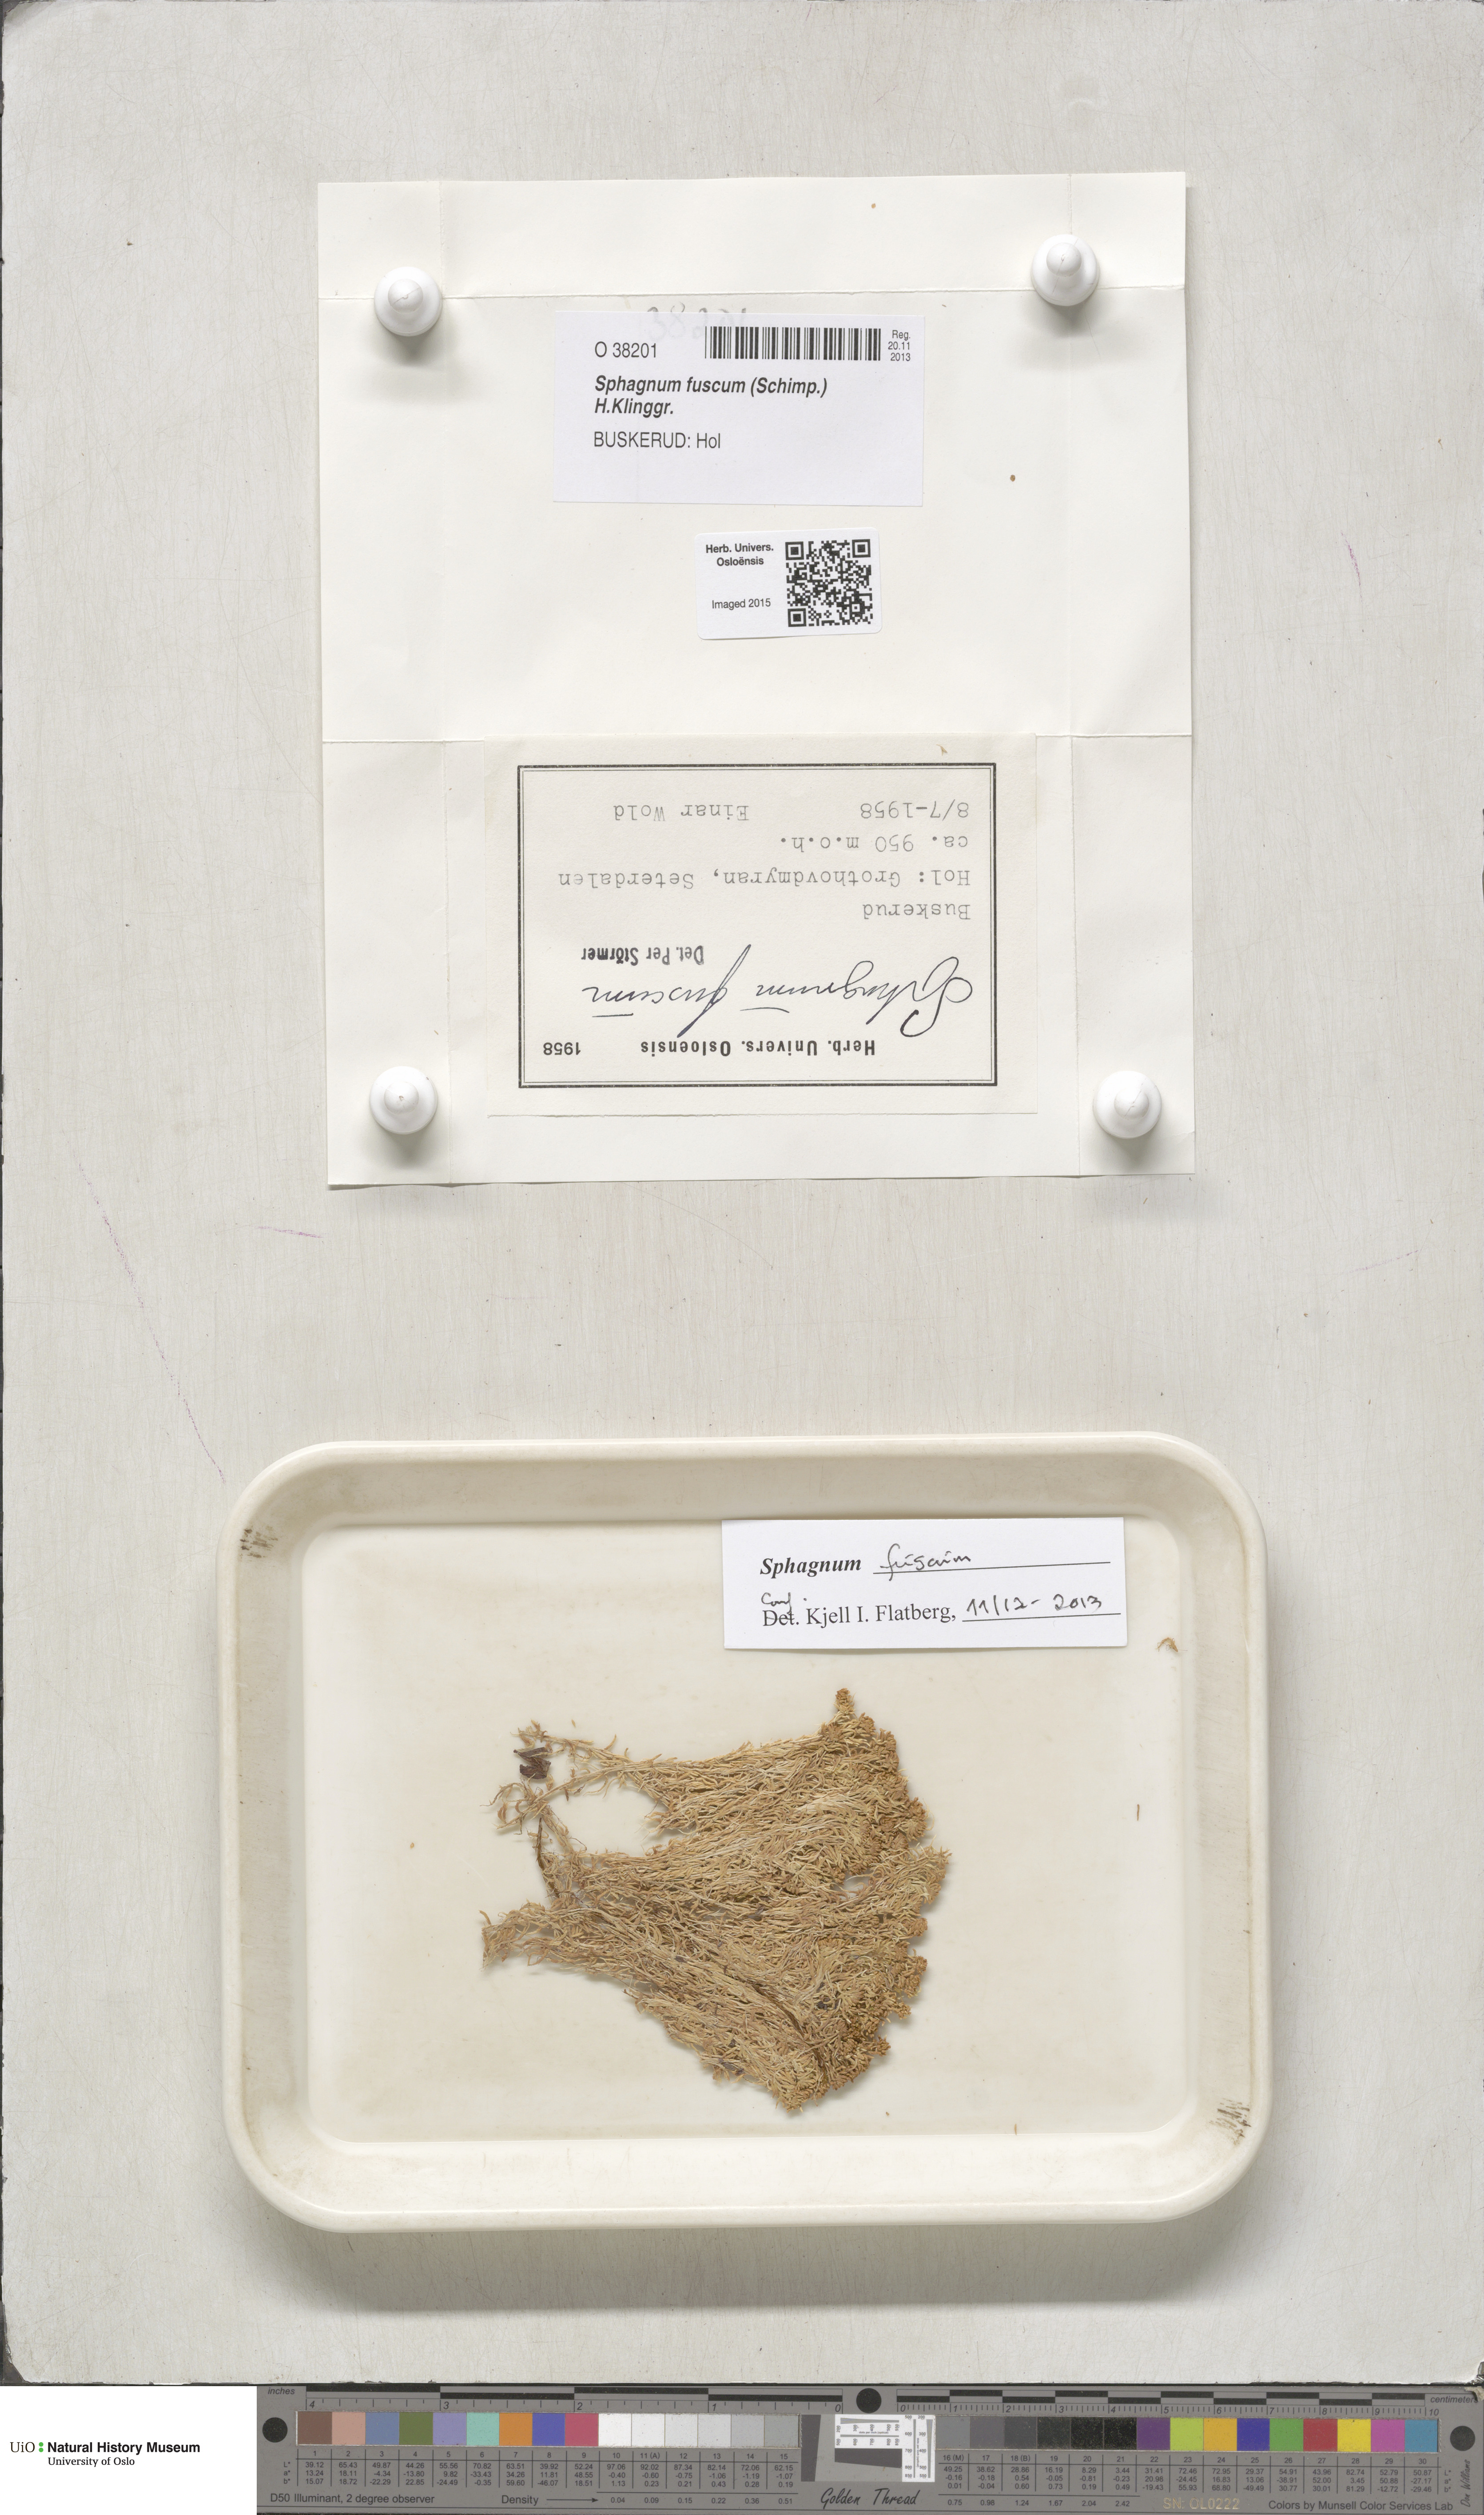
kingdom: Plantae
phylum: Bryophyta
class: Sphagnopsida
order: Sphagnales
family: Sphagnaceae
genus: Sphagnum
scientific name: Sphagnum fuscum
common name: Brown peat moss
